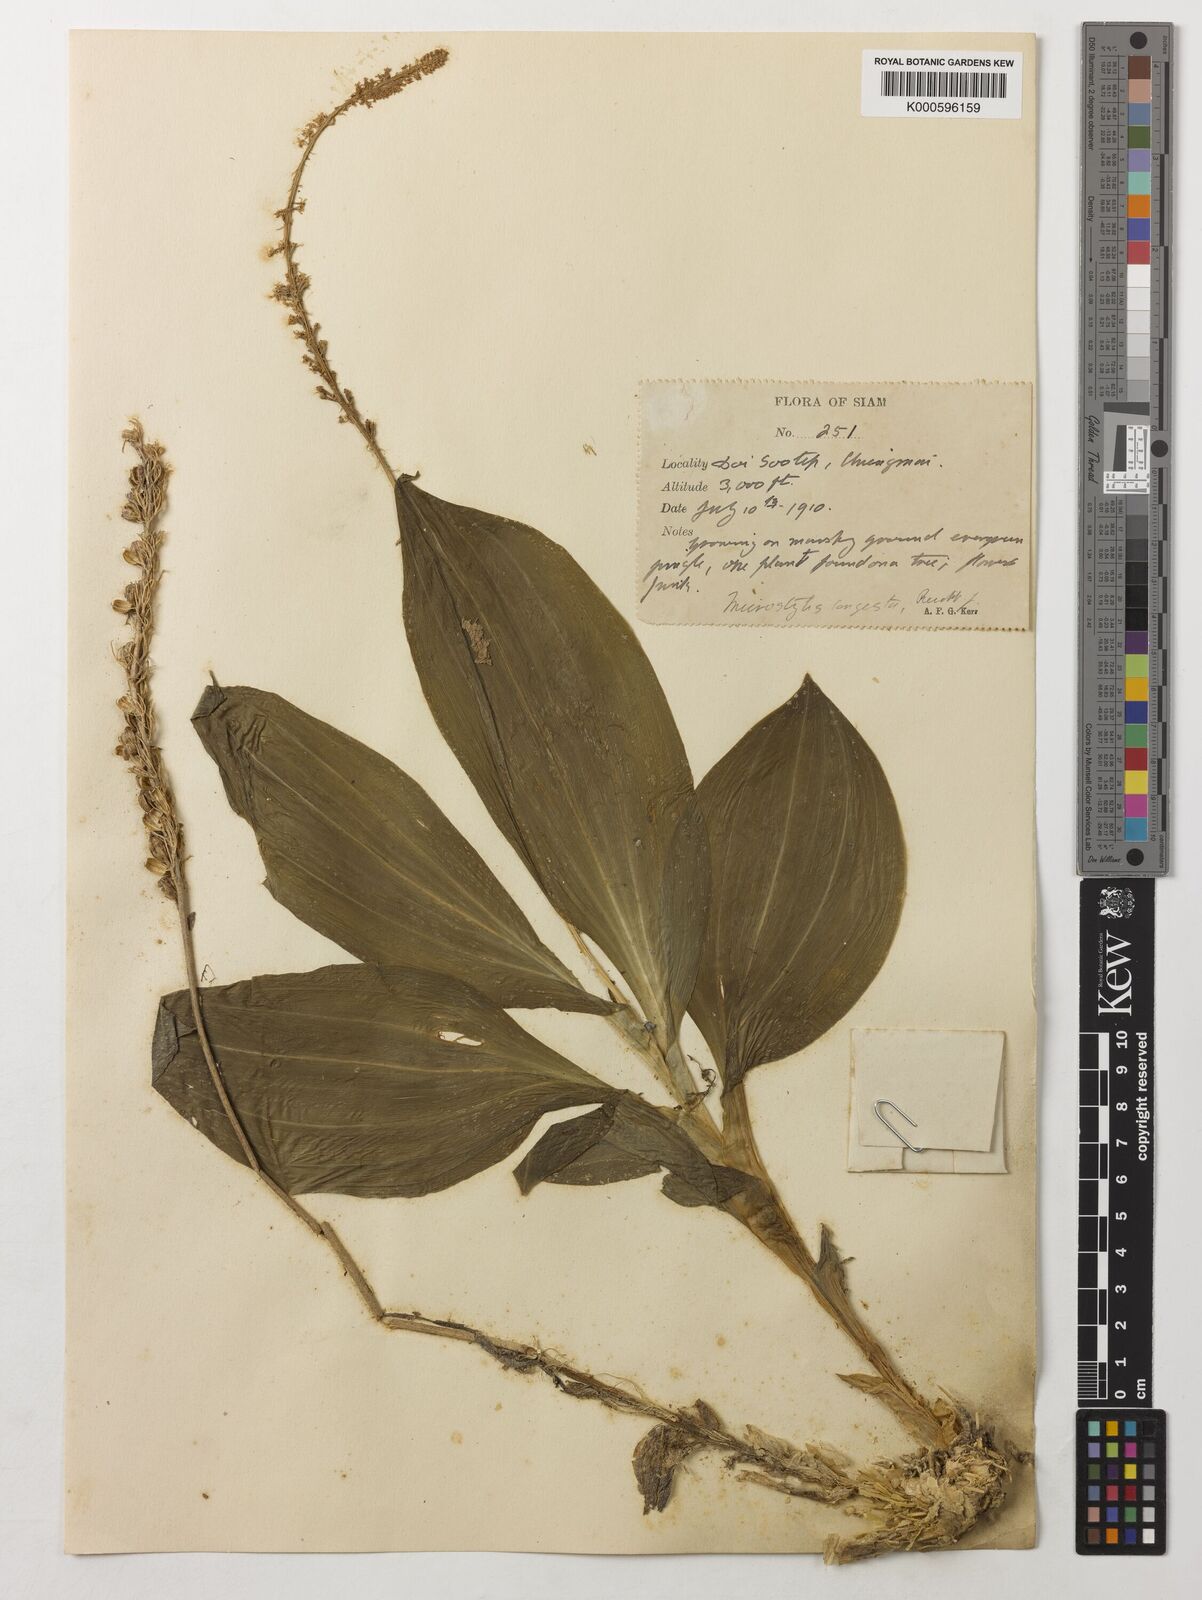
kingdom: Plantae
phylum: Tracheophyta
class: Liliopsida
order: Asparagales
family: Orchidaceae
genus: Dienia
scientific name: Dienia ophrydis
